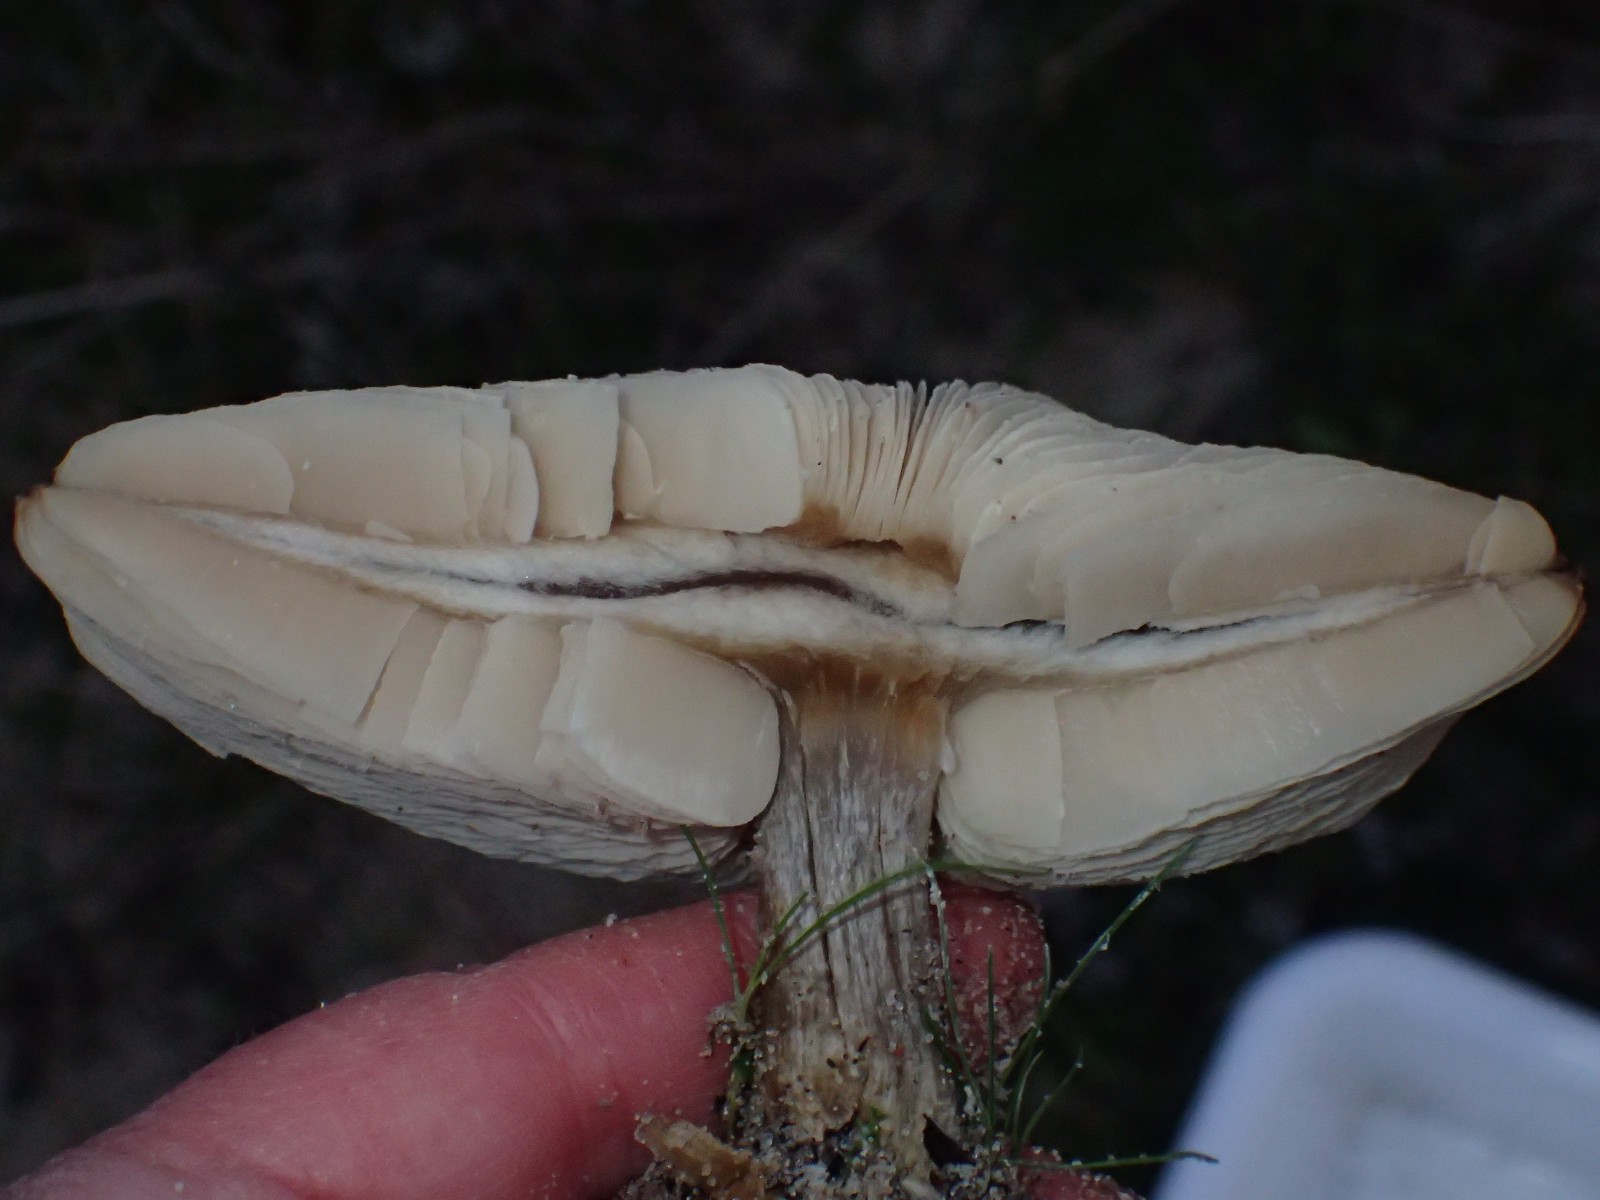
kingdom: Fungi
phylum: Basidiomycota
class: Agaricomycetes
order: Agaricales
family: Tricholomataceae
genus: Melanoleuca
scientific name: Melanoleuca
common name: munkehat
